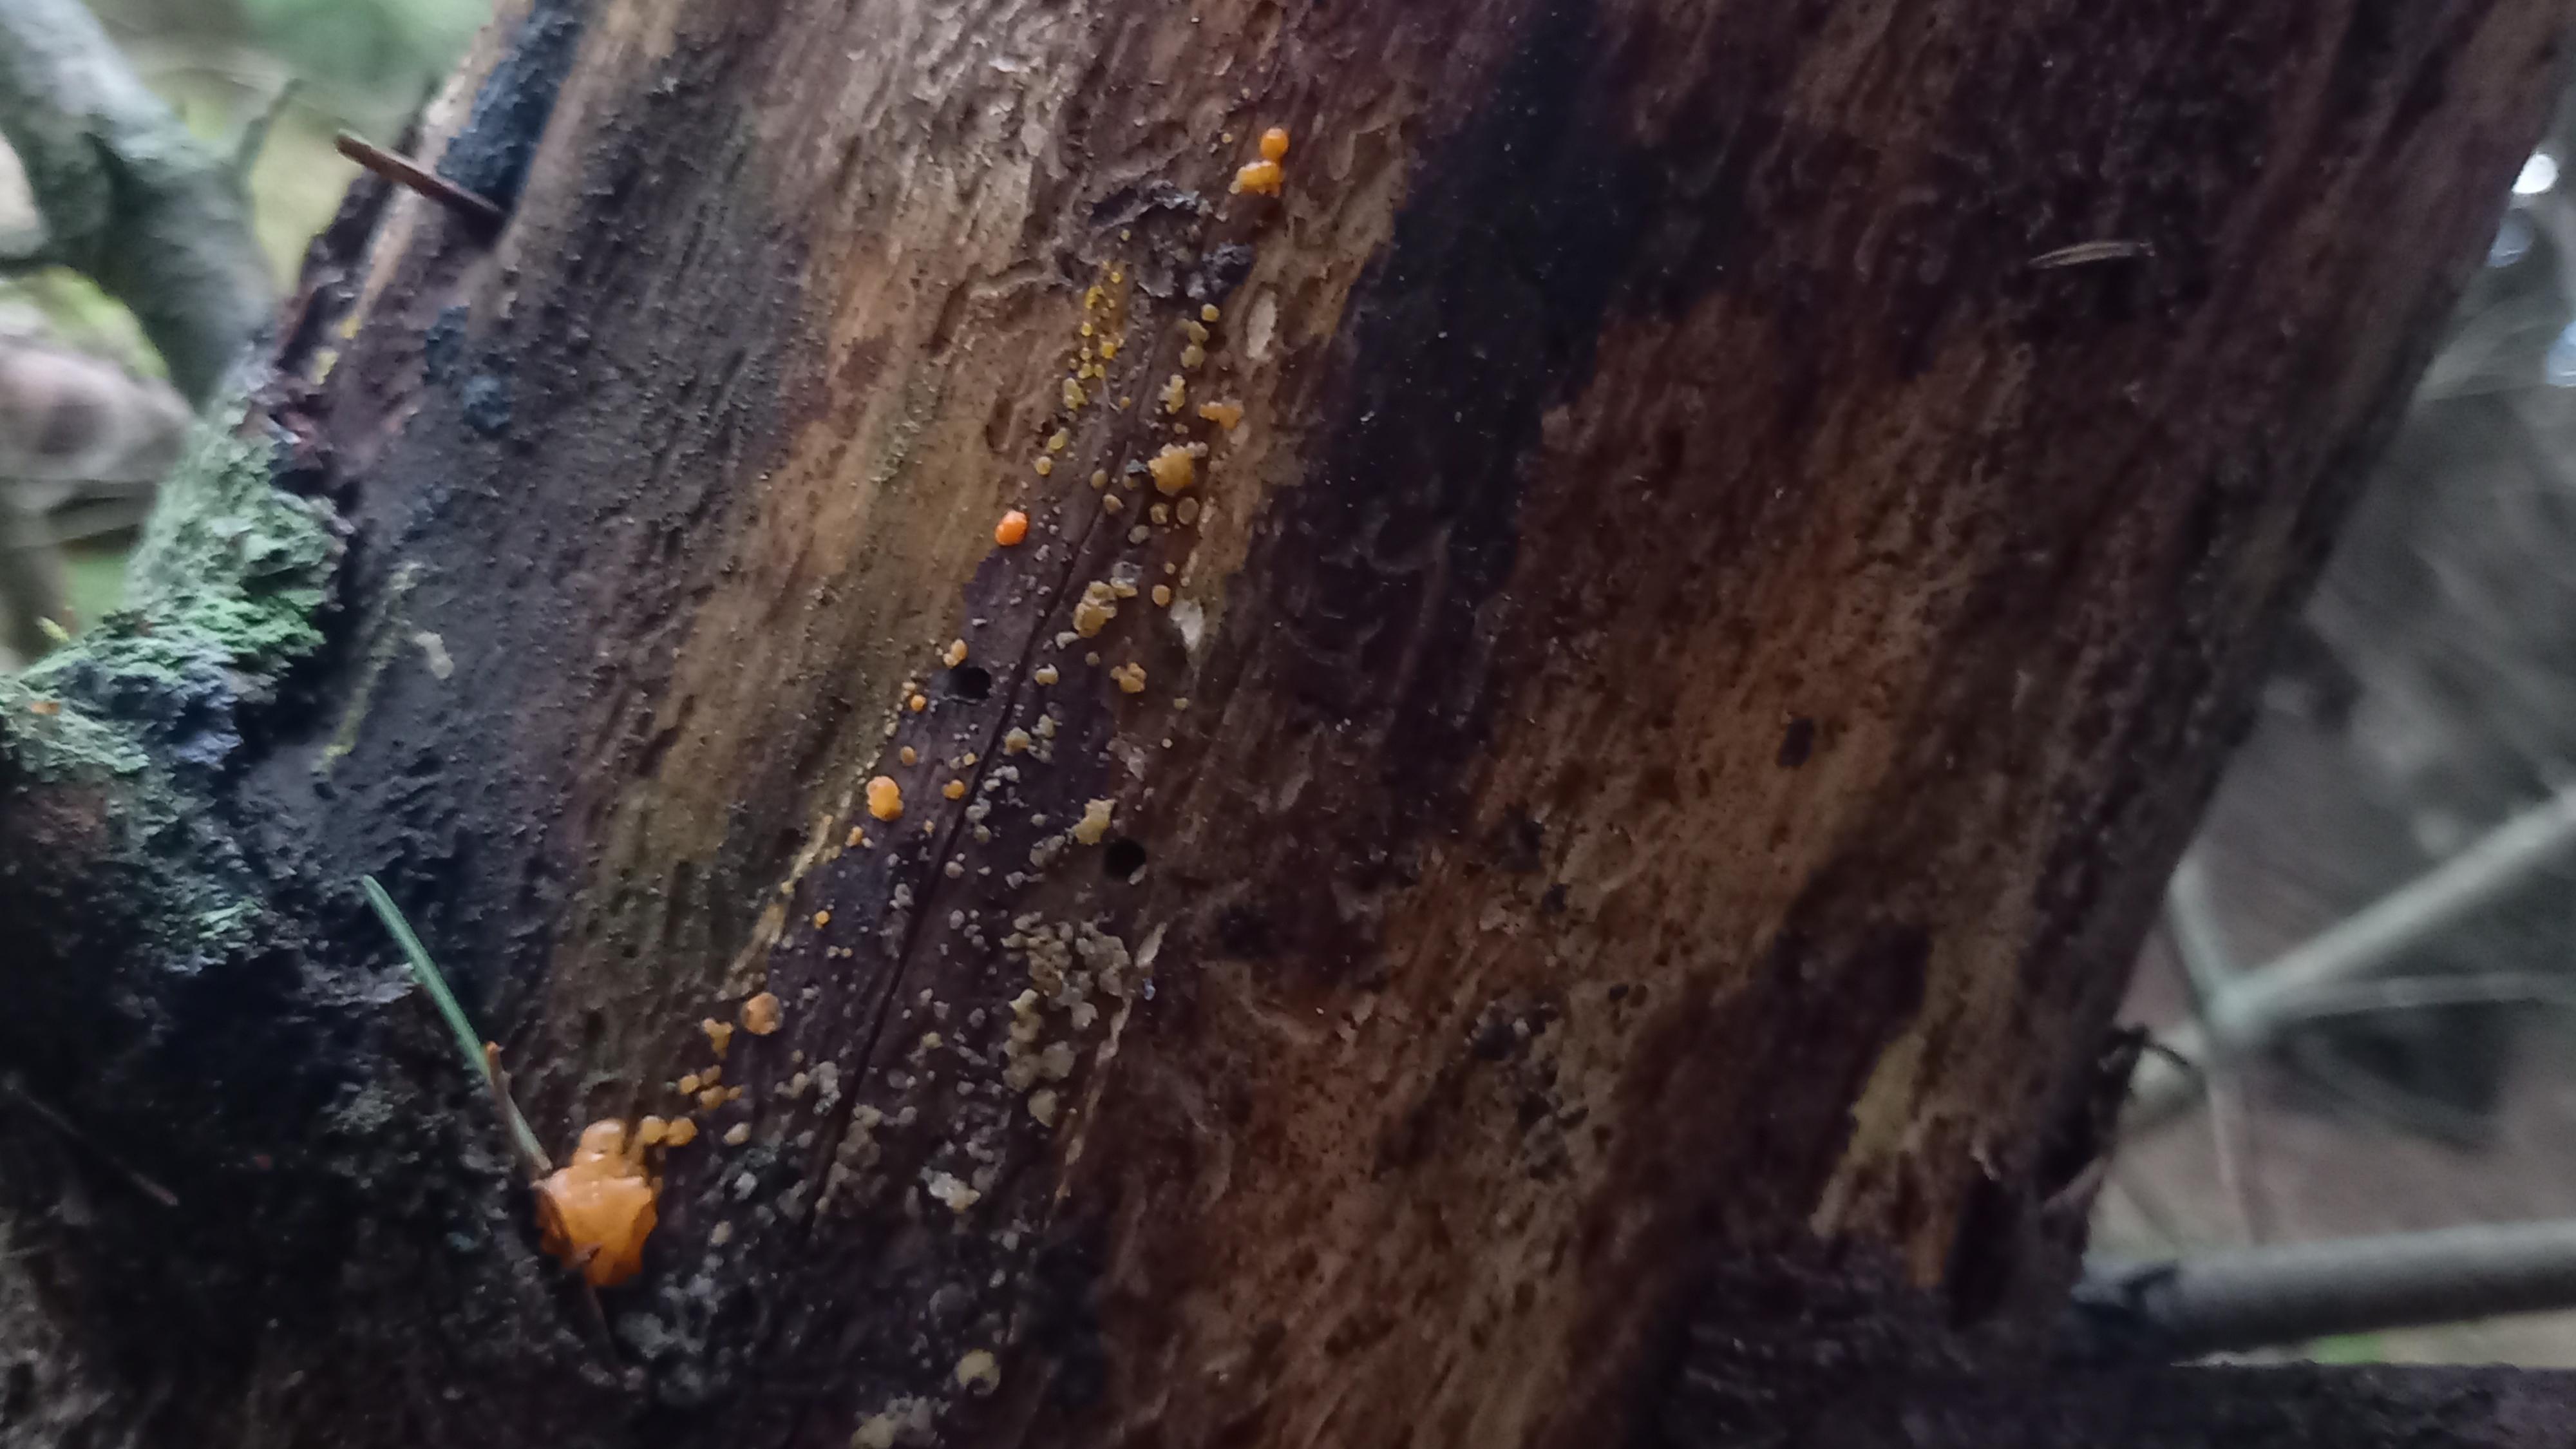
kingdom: Fungi
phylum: Basidiomycota
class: Dacrymycetes
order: Dacrymycetales
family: Dacrymycetaceae
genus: Dacrymyces
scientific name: Dacrymyces stillatus
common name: almindelig tåresvamp
